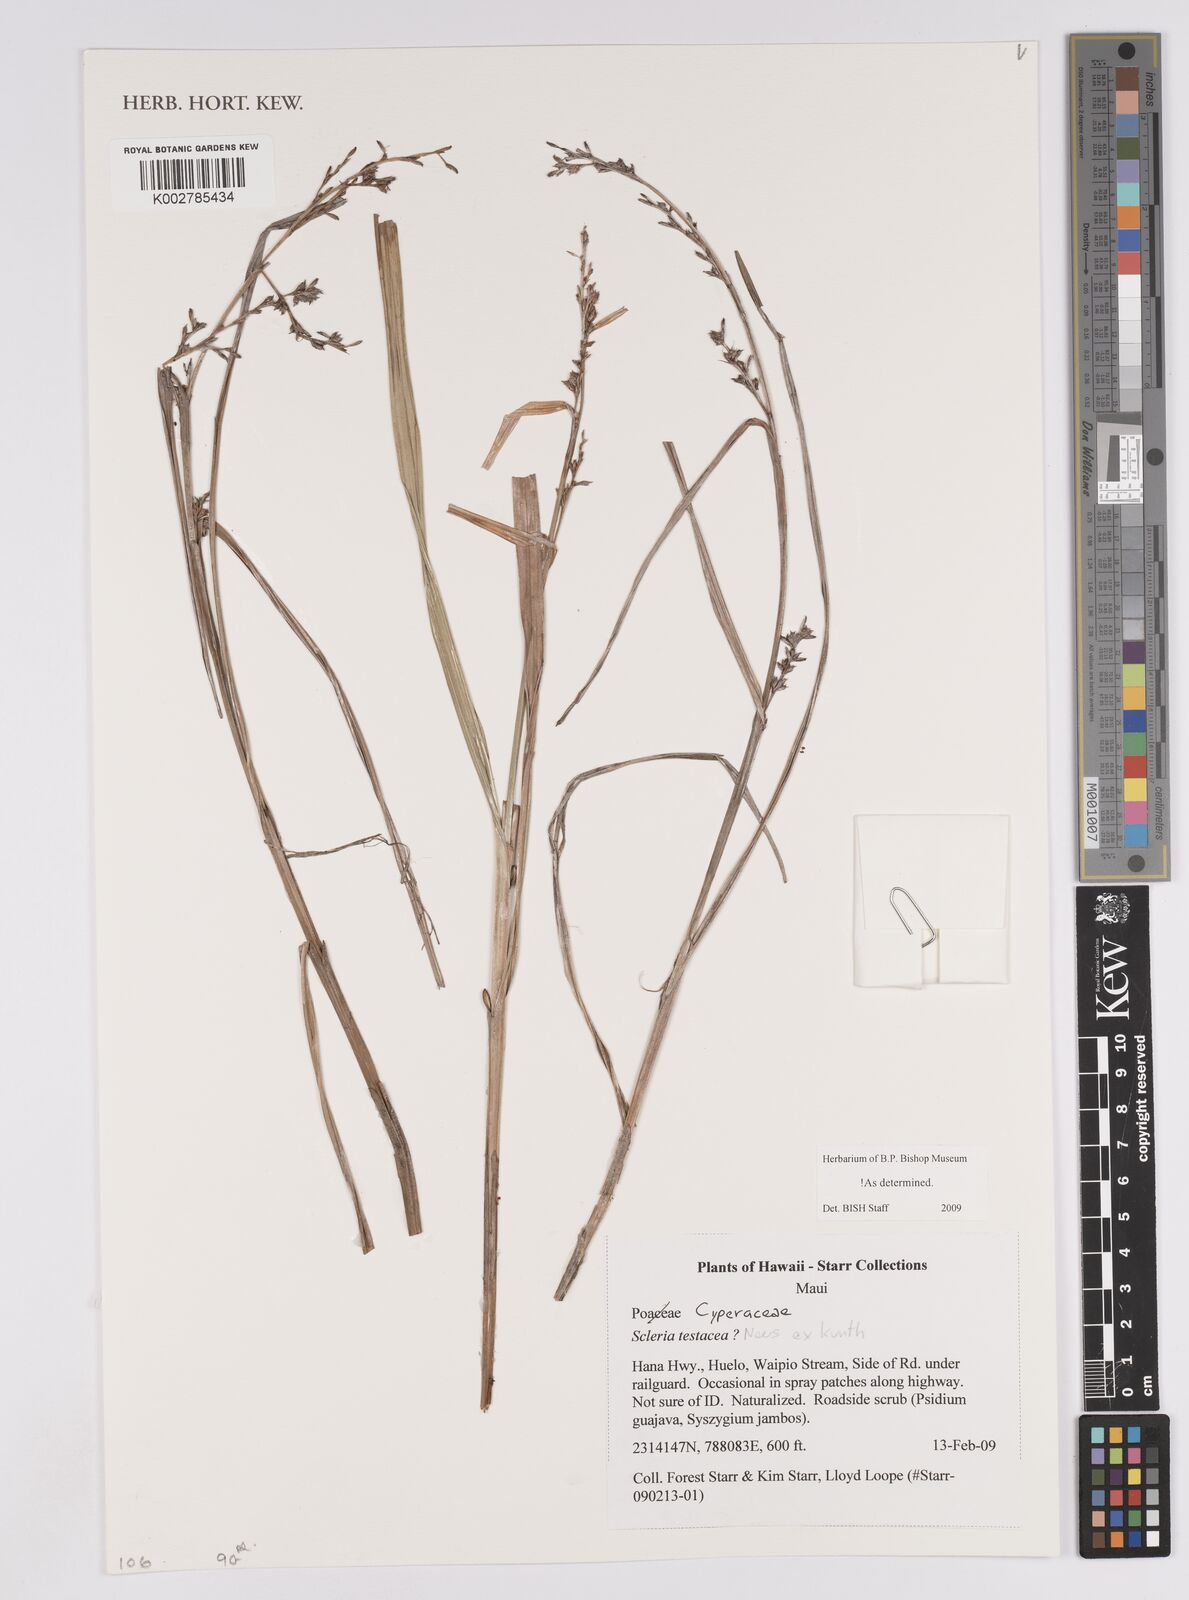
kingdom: Plantae
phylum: Tracheophyta
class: Liliopsida
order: Poales
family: Cyperaceae
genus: Scleria
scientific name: Scleria testacea
